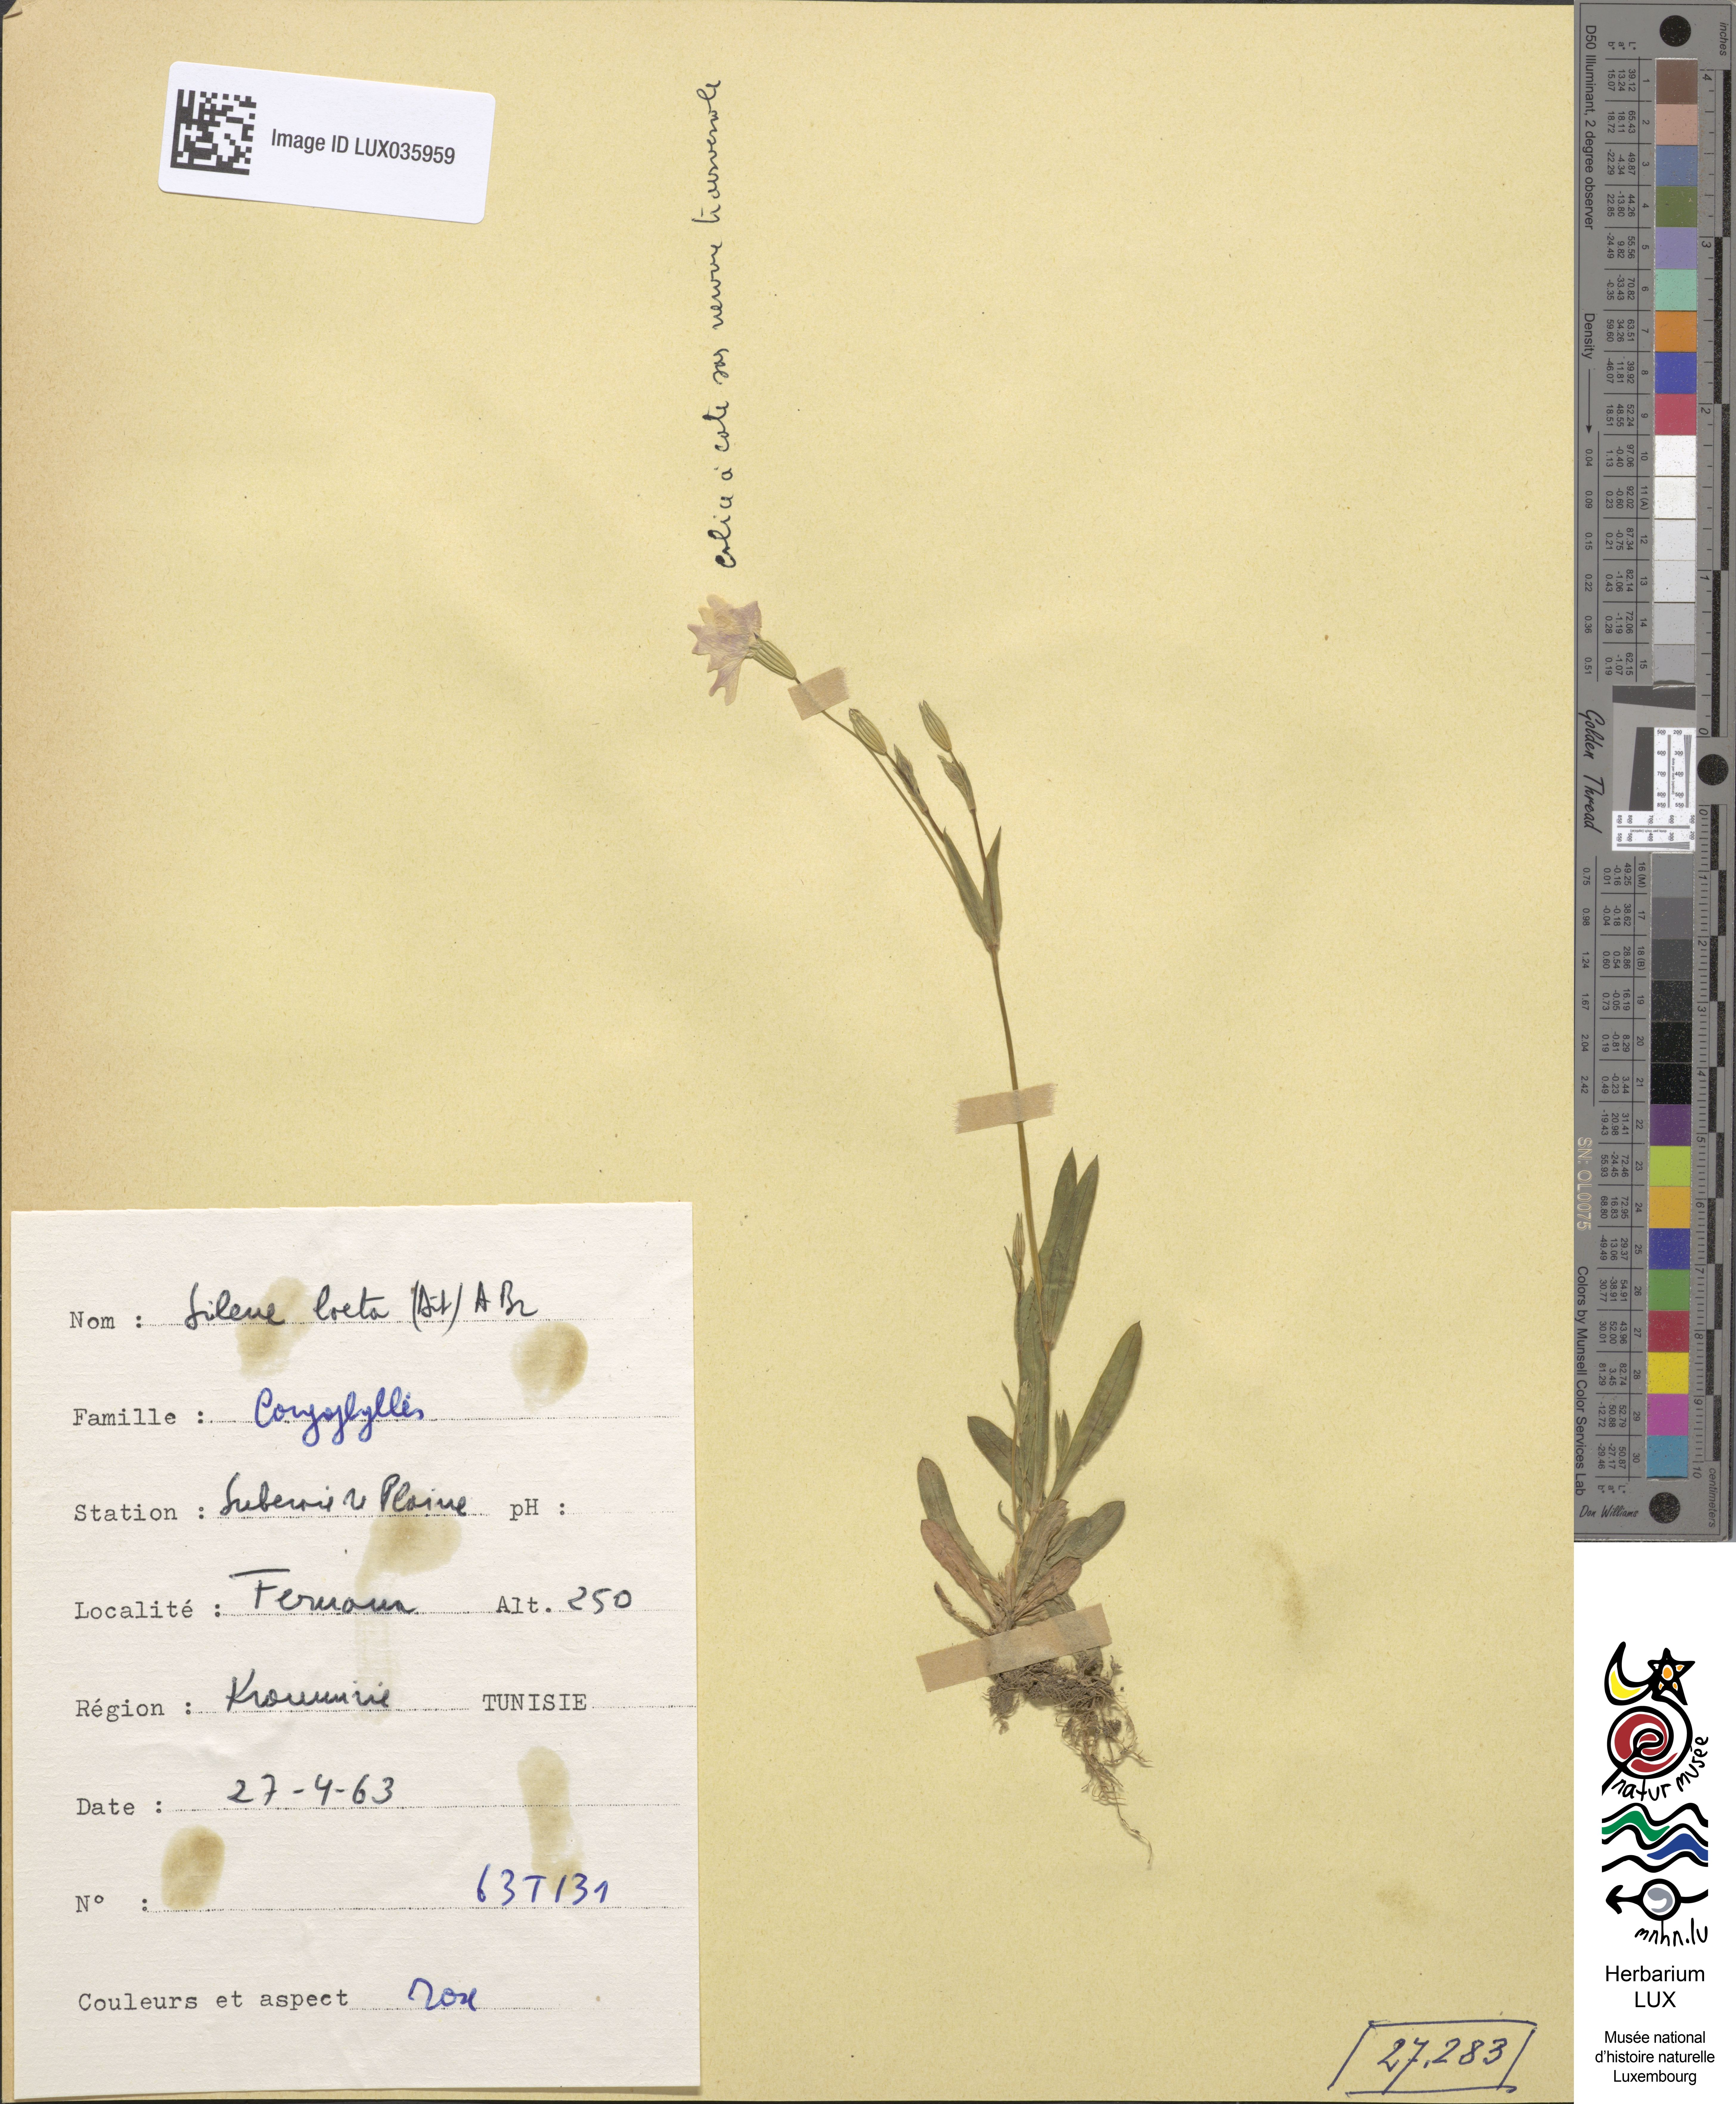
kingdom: Plantae
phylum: Tracheophyta
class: Magnoliopsida
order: Caryophyllales
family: Caryophyllaceae
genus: Eudianthe
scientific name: Eudianthe laeta
